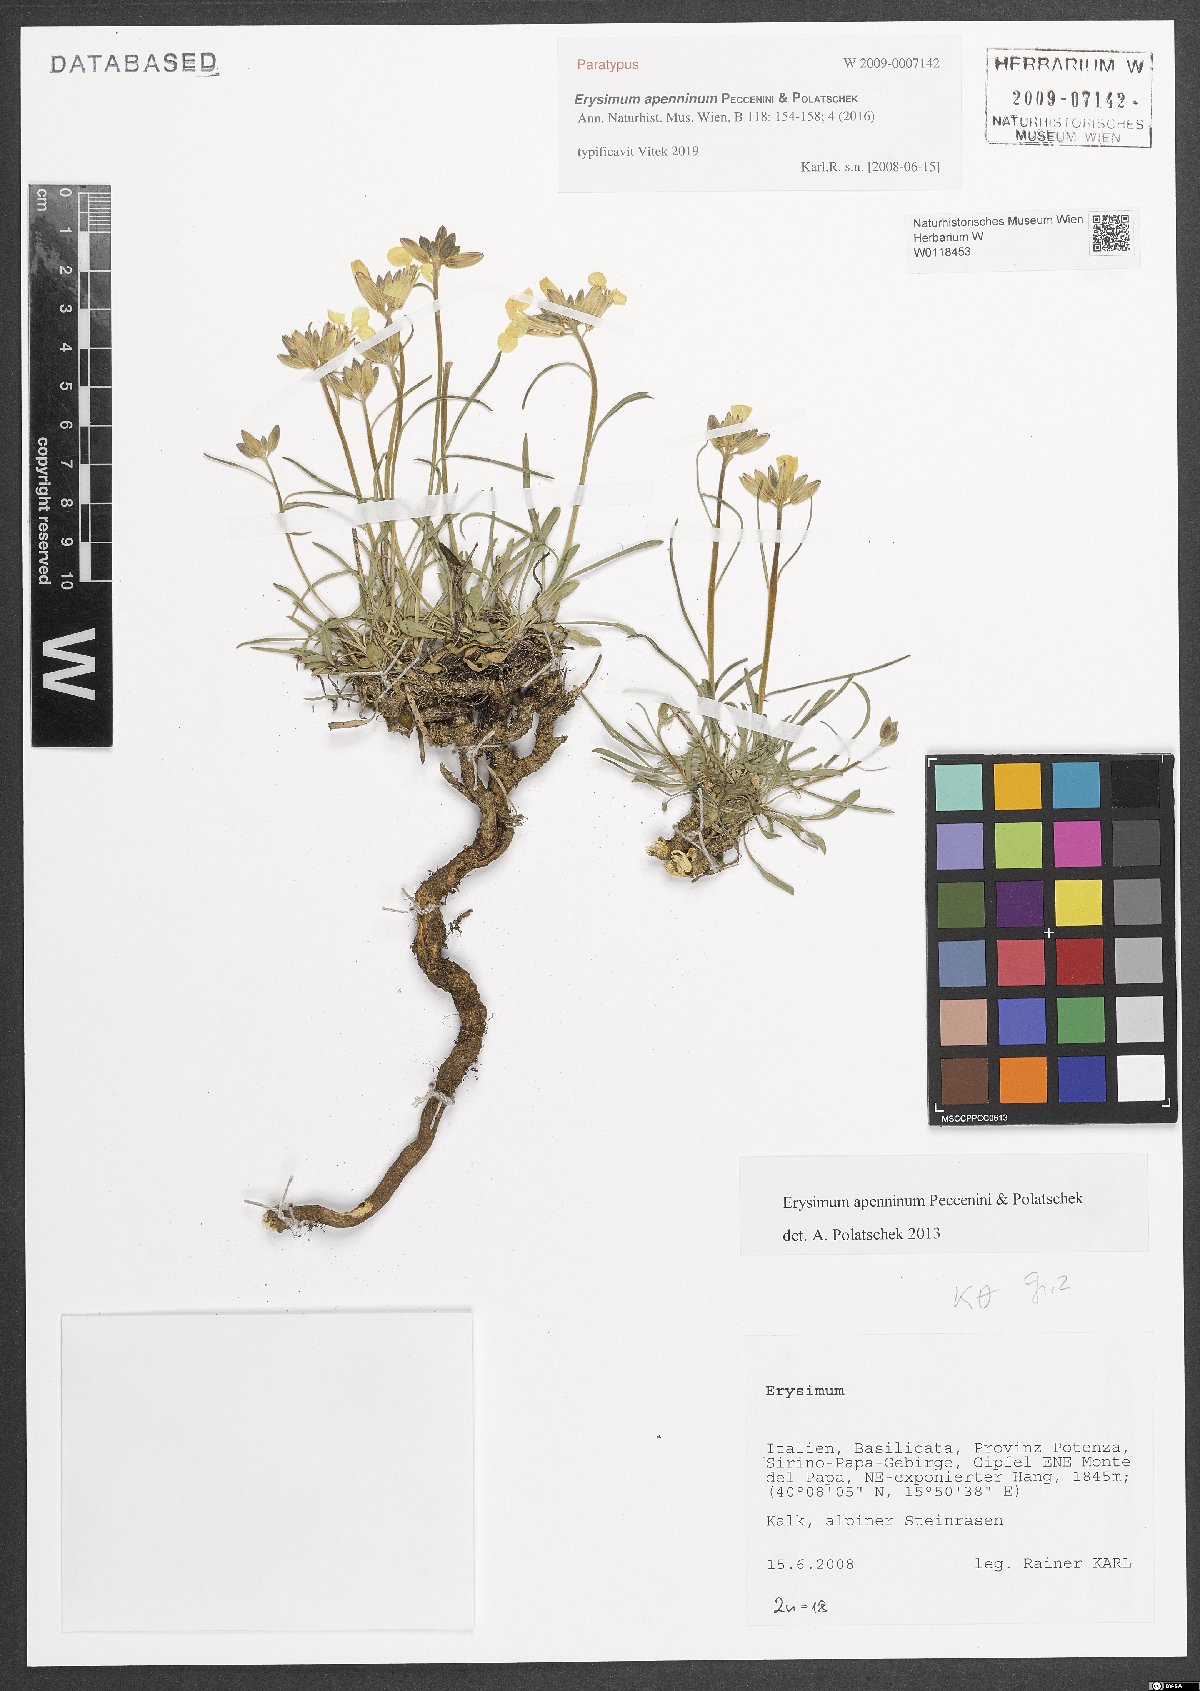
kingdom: Plantae
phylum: Tracheophyta
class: Magnoliopsida
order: Brassicales
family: Brassicaceae
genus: Erysimum
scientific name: Erysimum apenninum
